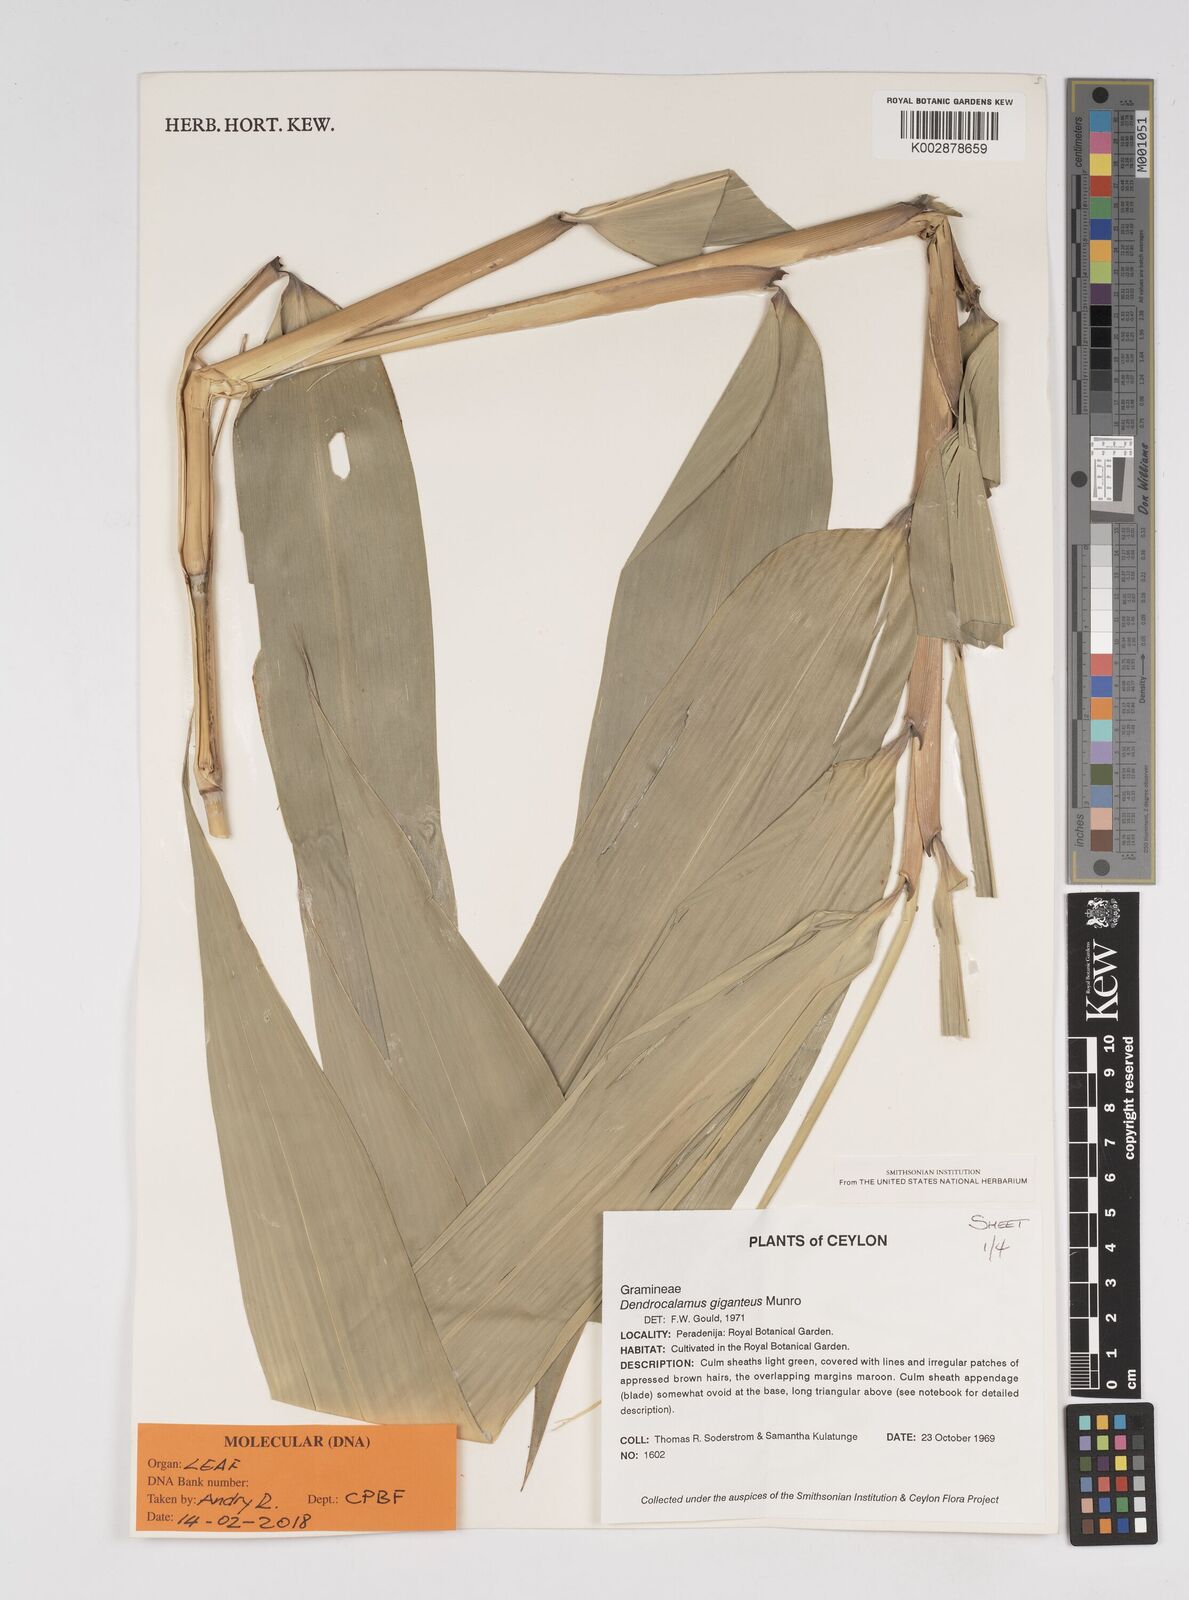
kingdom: Plantae
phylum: Tracheophyta
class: Liliopsida
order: Poales
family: Poaceae
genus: Dendrocalamus
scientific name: Dendrocalamus giganteus
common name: Giant bamboo
